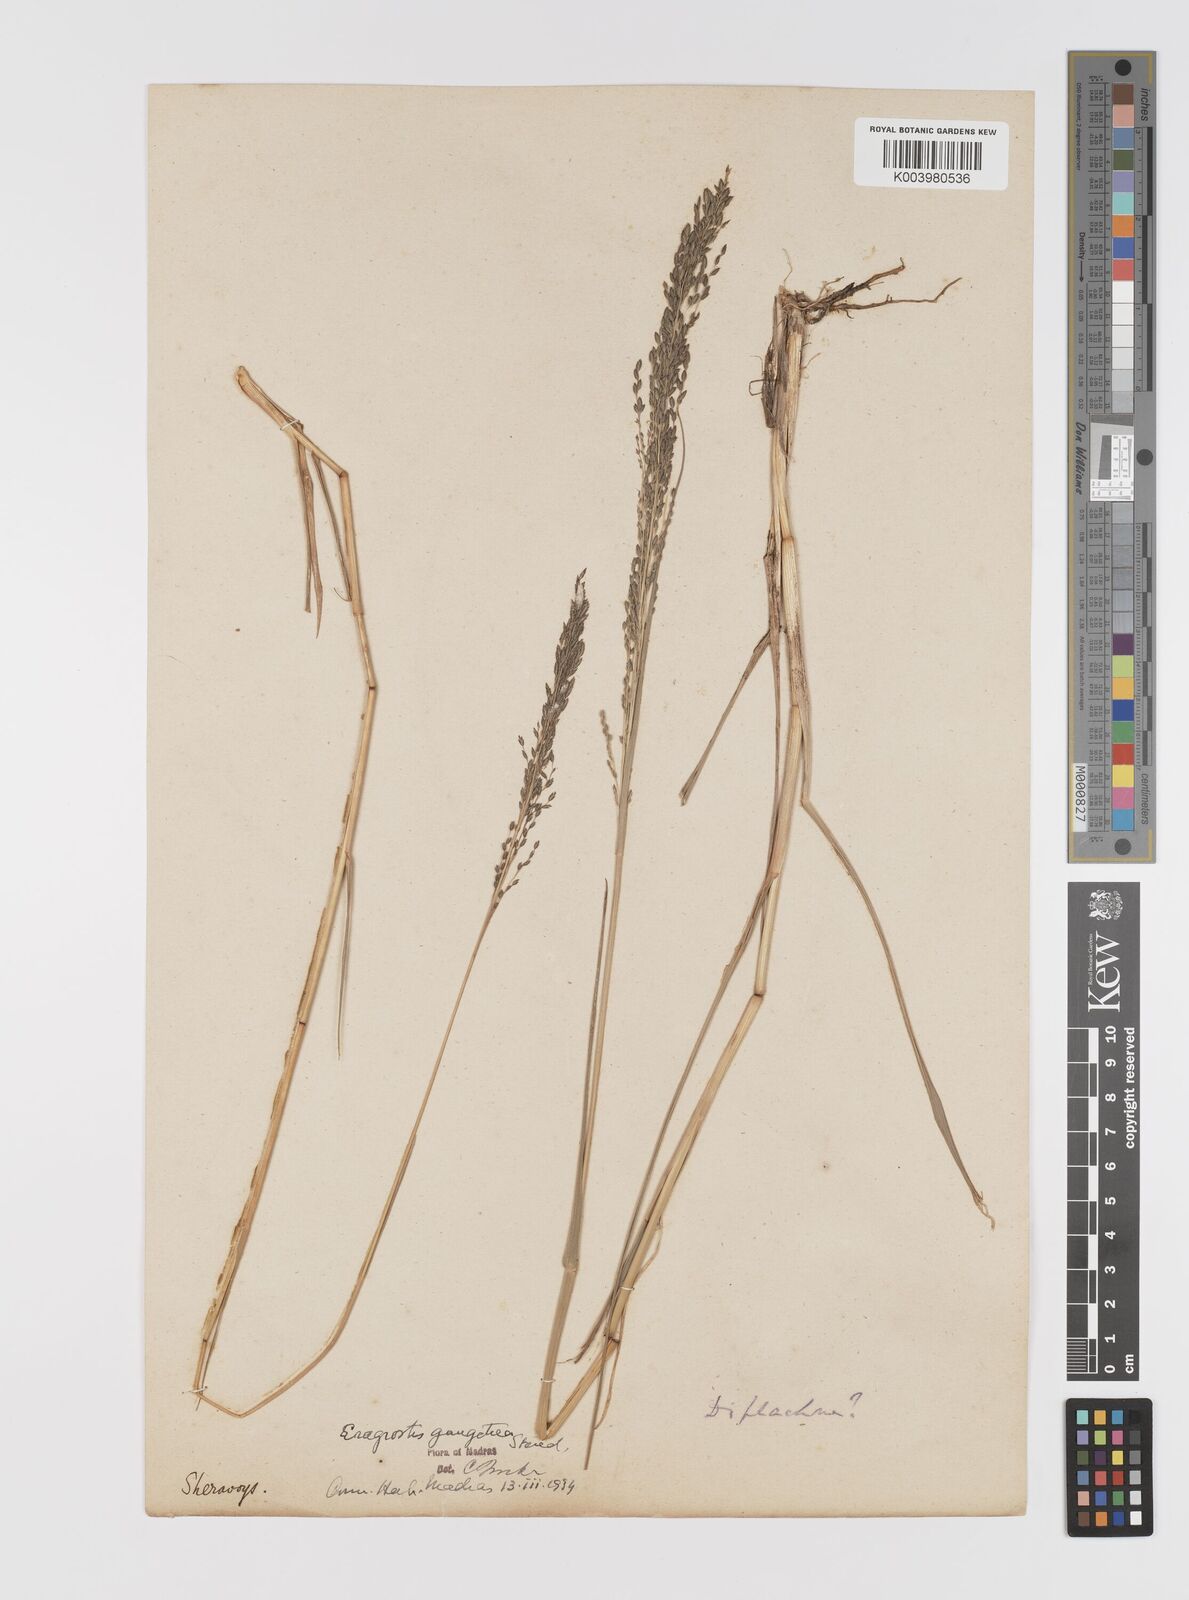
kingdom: Plantae
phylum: Tracheophyta
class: Liliopsida
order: Poales
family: Poaceae
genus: Eragrostis
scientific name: Eragrostis
